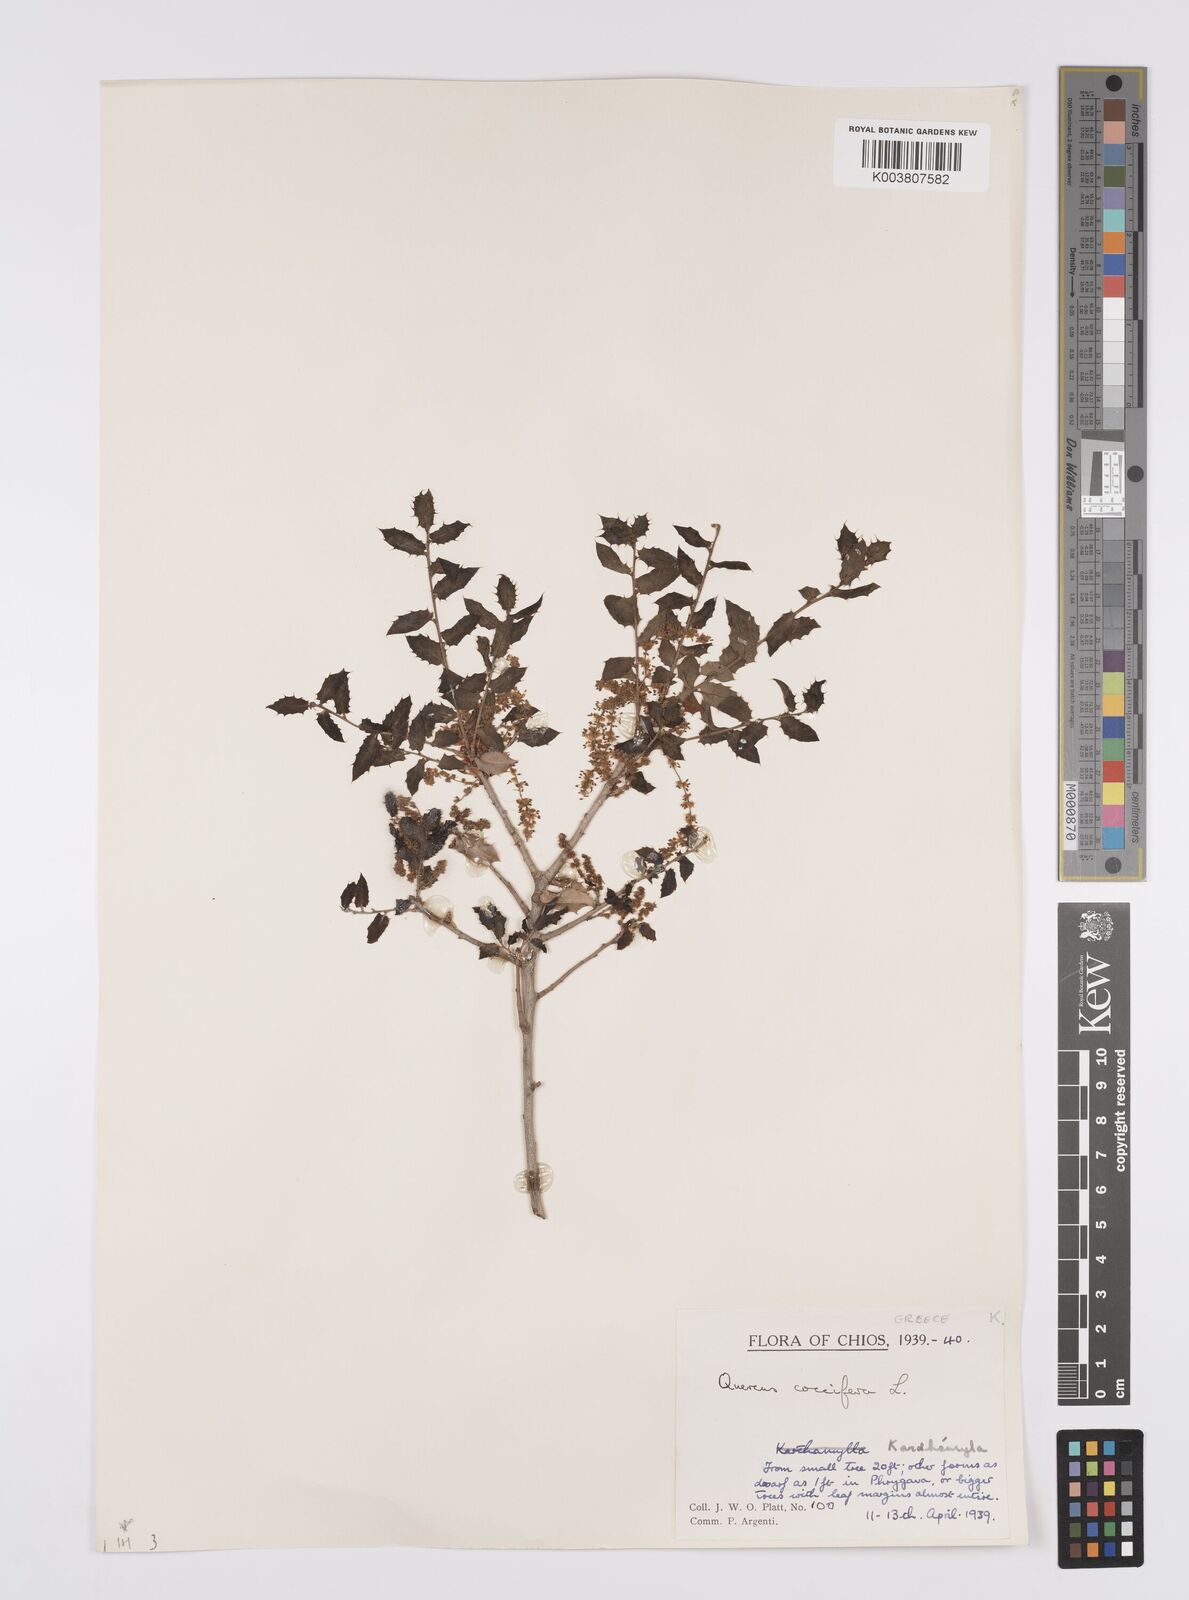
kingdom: Plantae
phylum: Tracheophyta
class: Magnoliopsida
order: Fagales
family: Fagaceae
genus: Quercus
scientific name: Quercus coccifera
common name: Kermes oak
